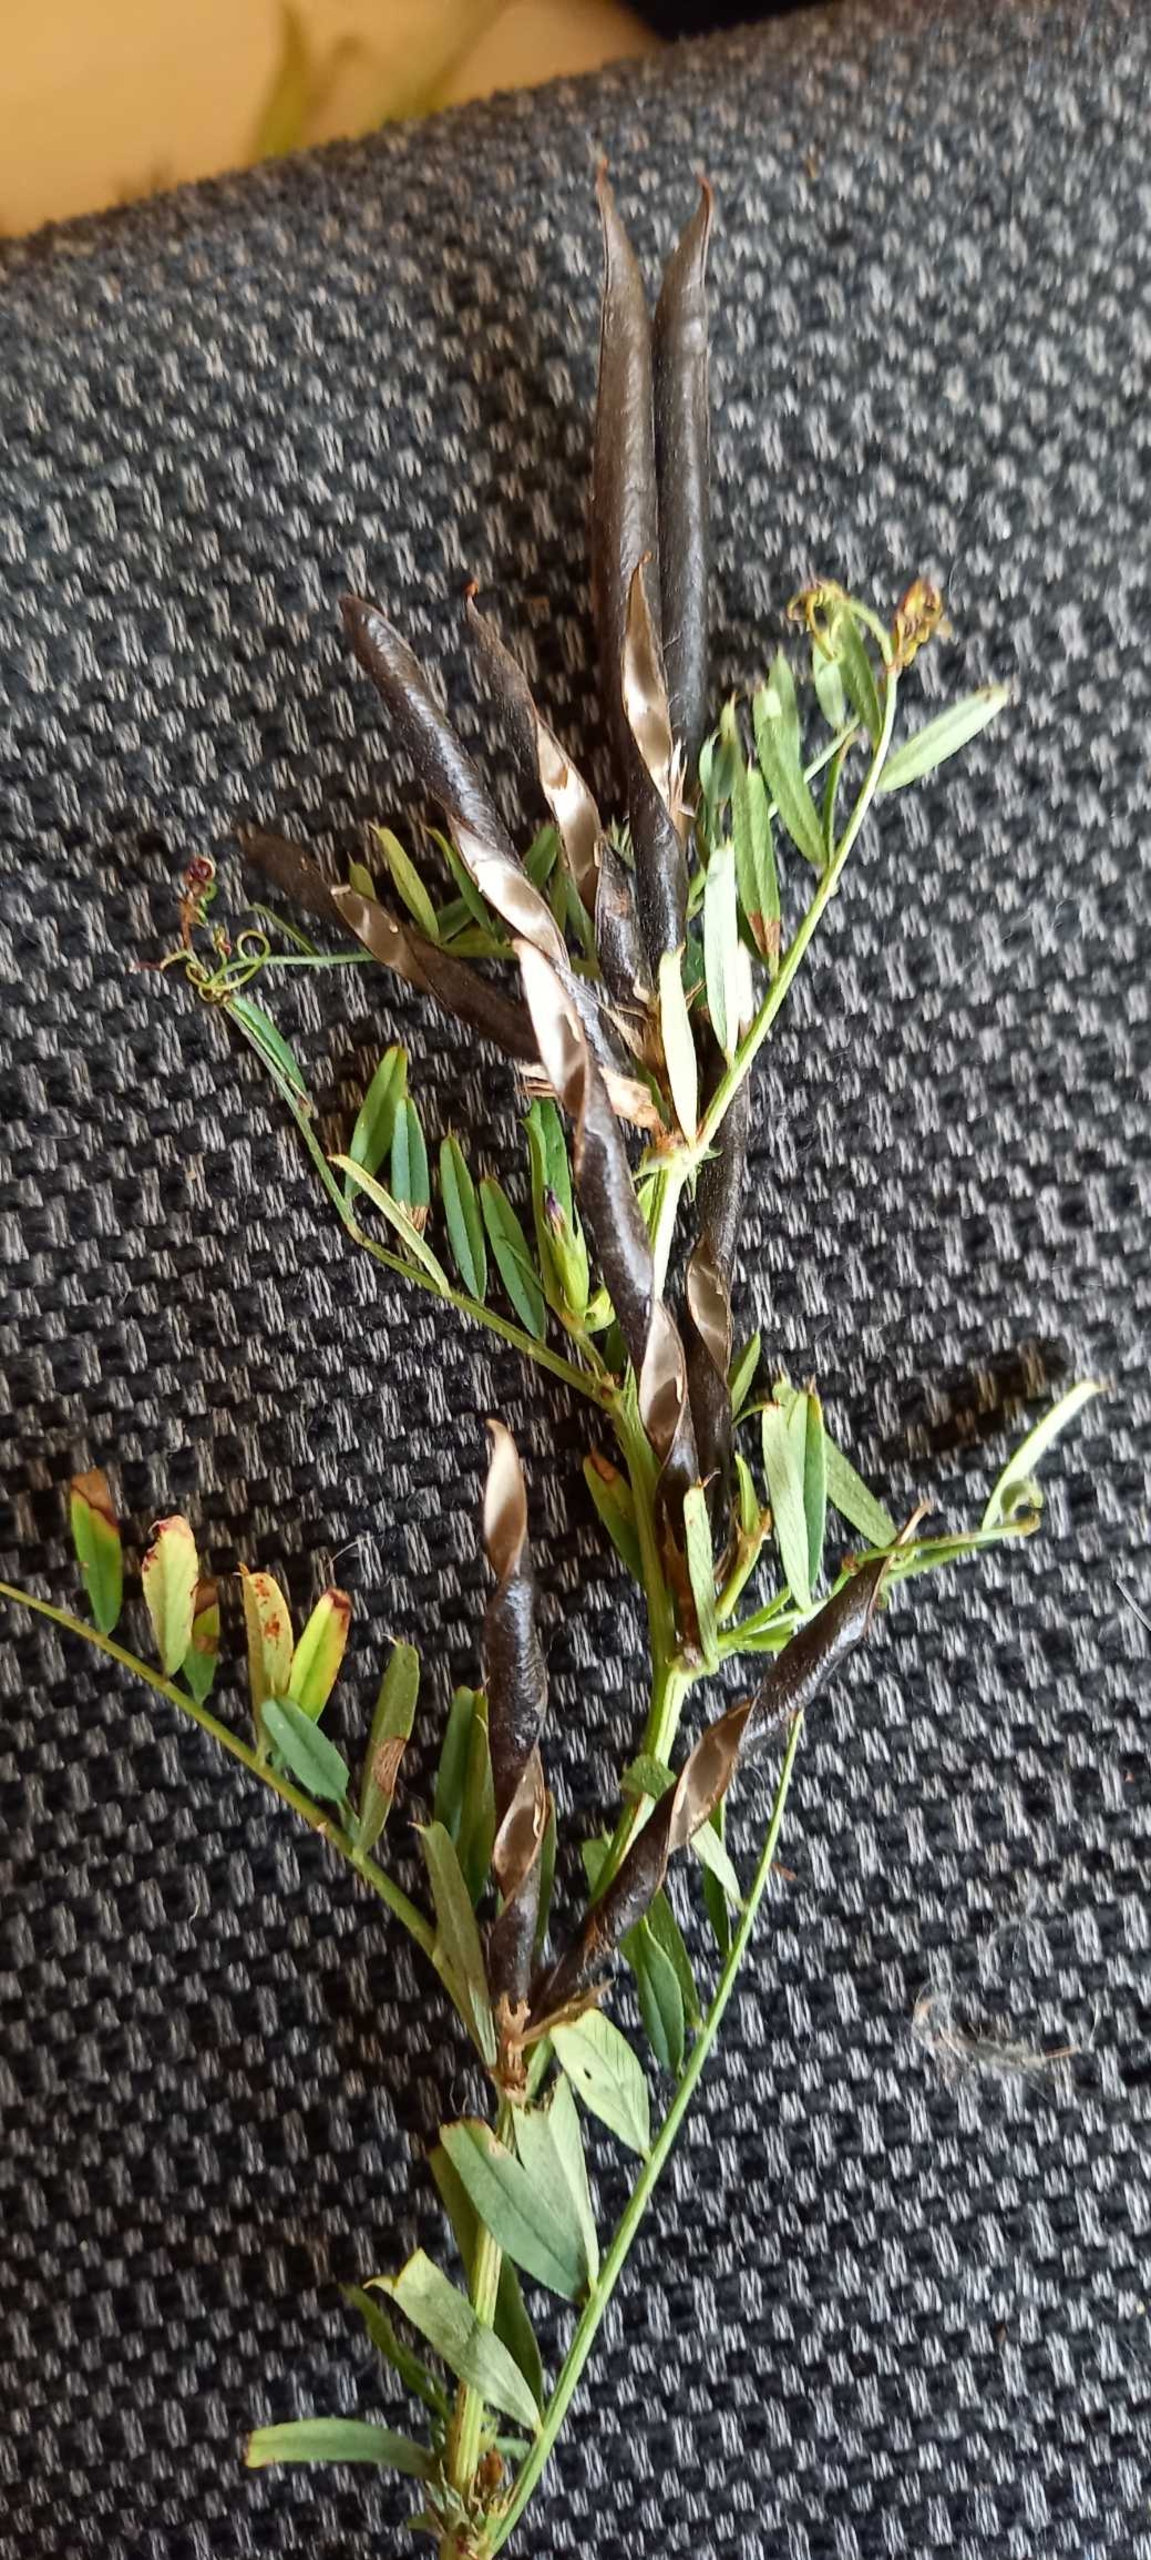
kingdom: Plantae
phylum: Tracheophyta
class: Magnoliopsida
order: Fabales
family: Fabaceae
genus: Vicia
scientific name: Vicia sativa
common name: Foder-vikke
